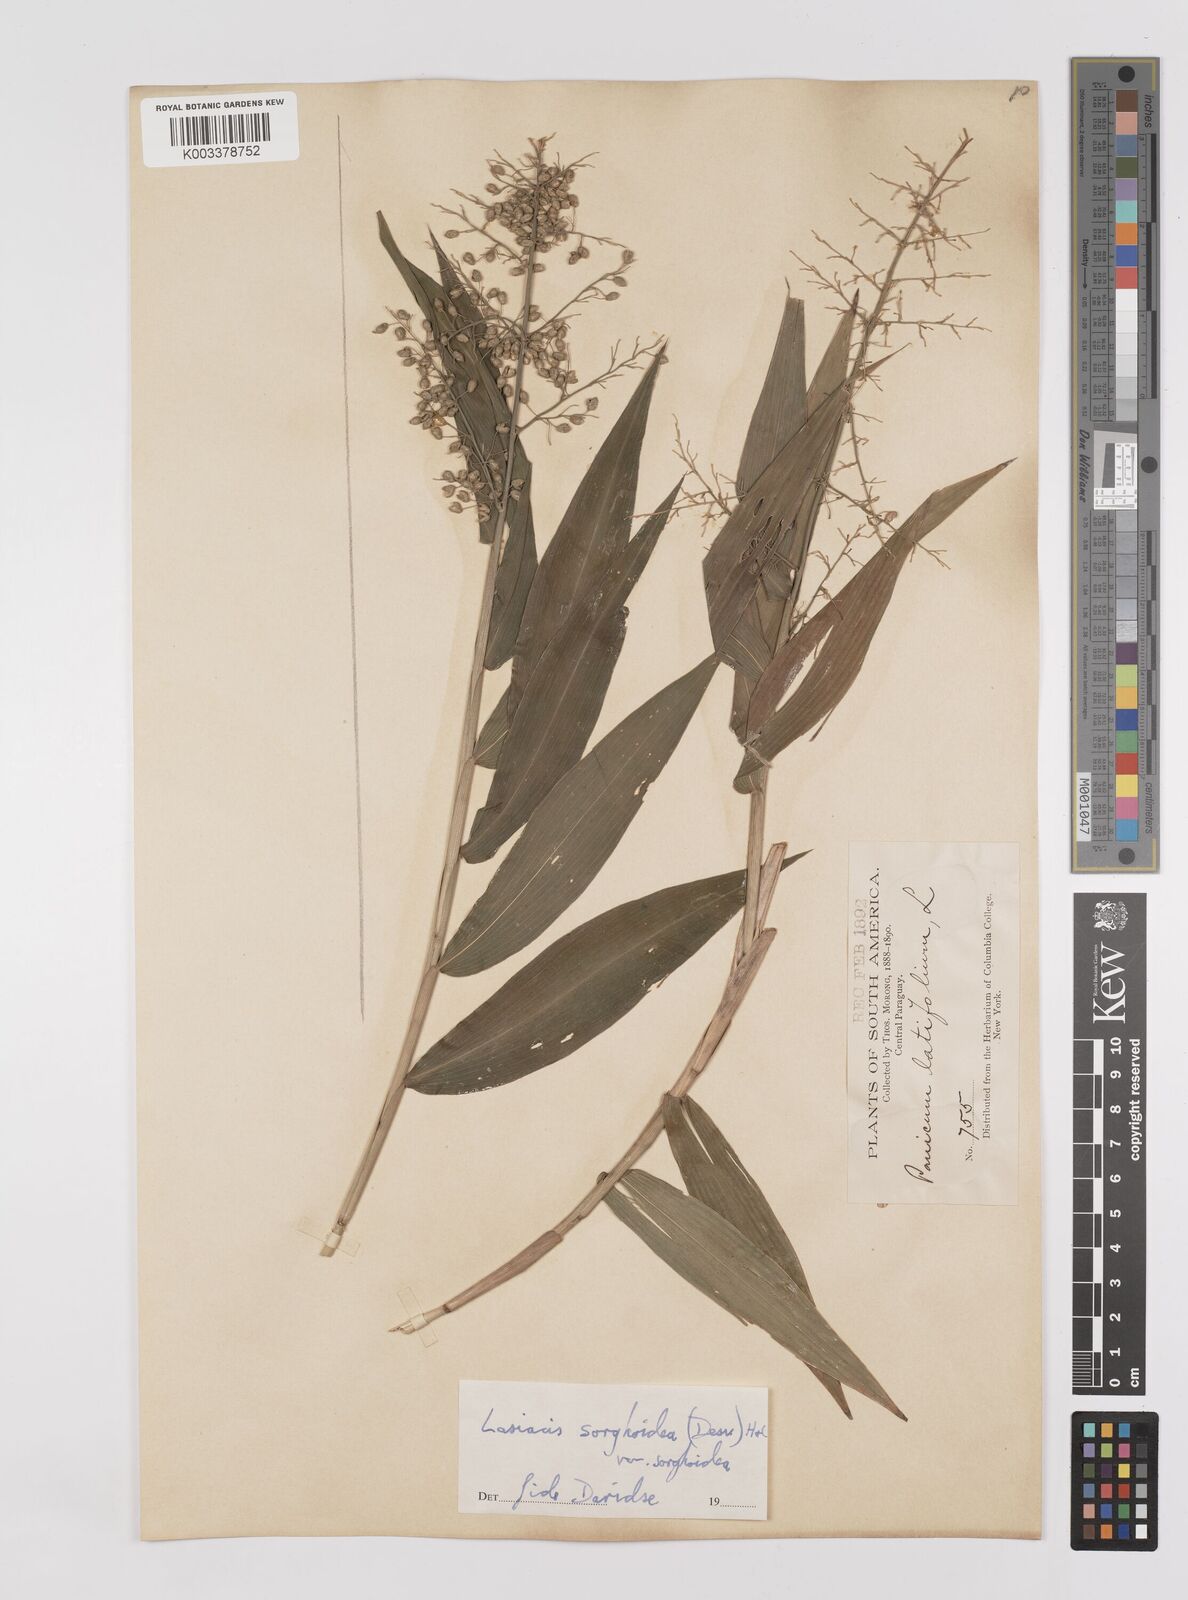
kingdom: Plantae
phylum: Tracheophyta
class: Liliopsida
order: Poales
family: Poaceae
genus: Lasiacis
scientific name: Lasiacis maculata
